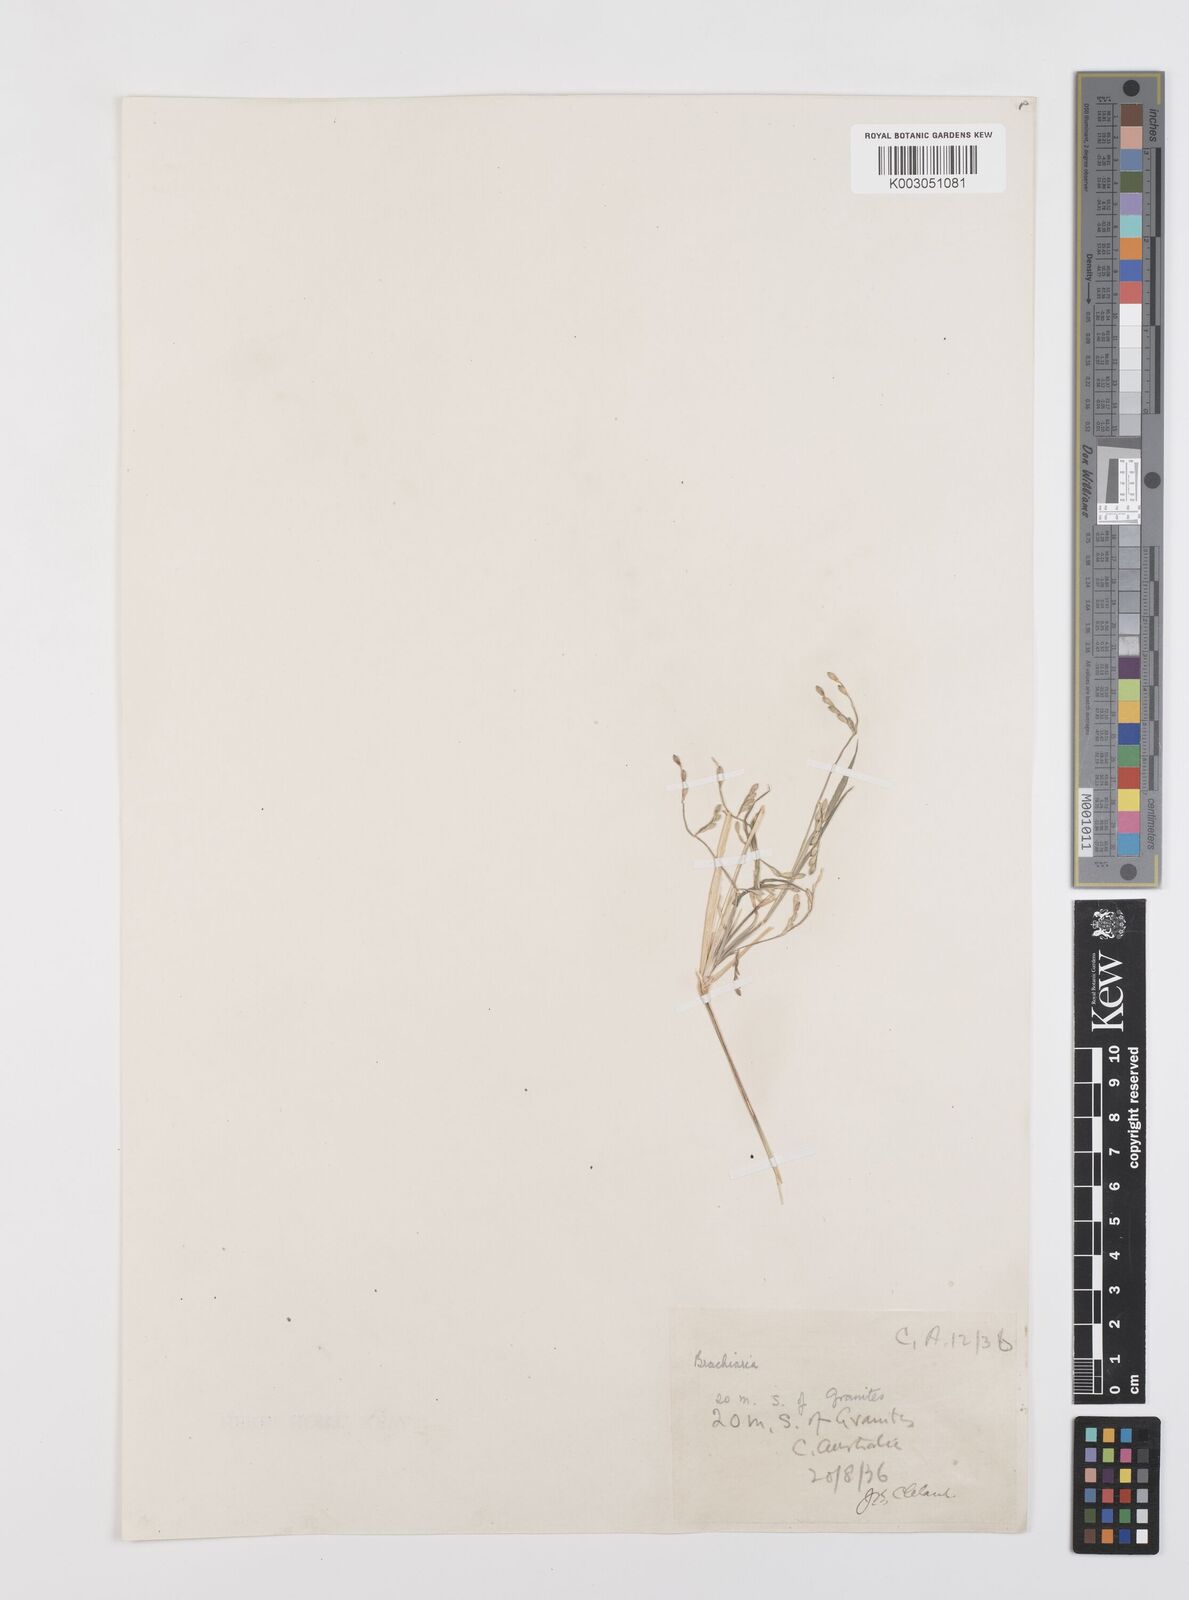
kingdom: Plantae
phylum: Tracheophyta
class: Liliopsida
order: Poales
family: Poaceae
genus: Urochloa
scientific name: Urochloa piligera
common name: Wattle signalgrass
